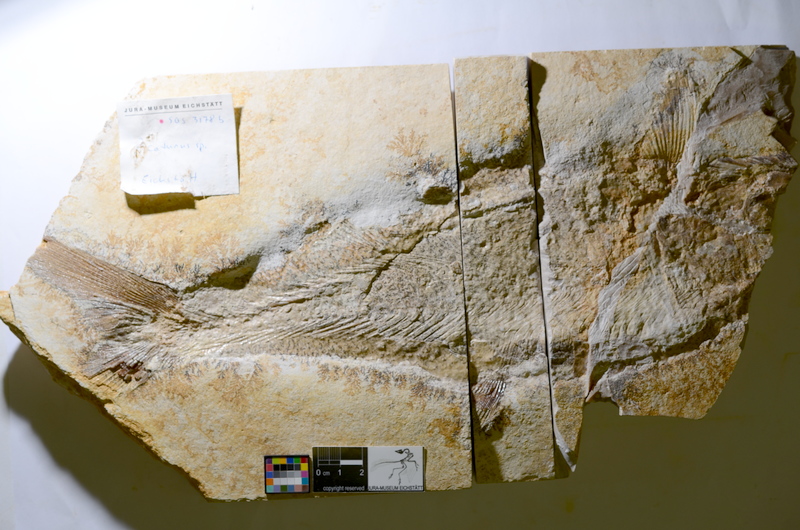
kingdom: Animalia
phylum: Chordata
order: Amiiformes
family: Caturidae
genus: Caturus
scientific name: Caturus
